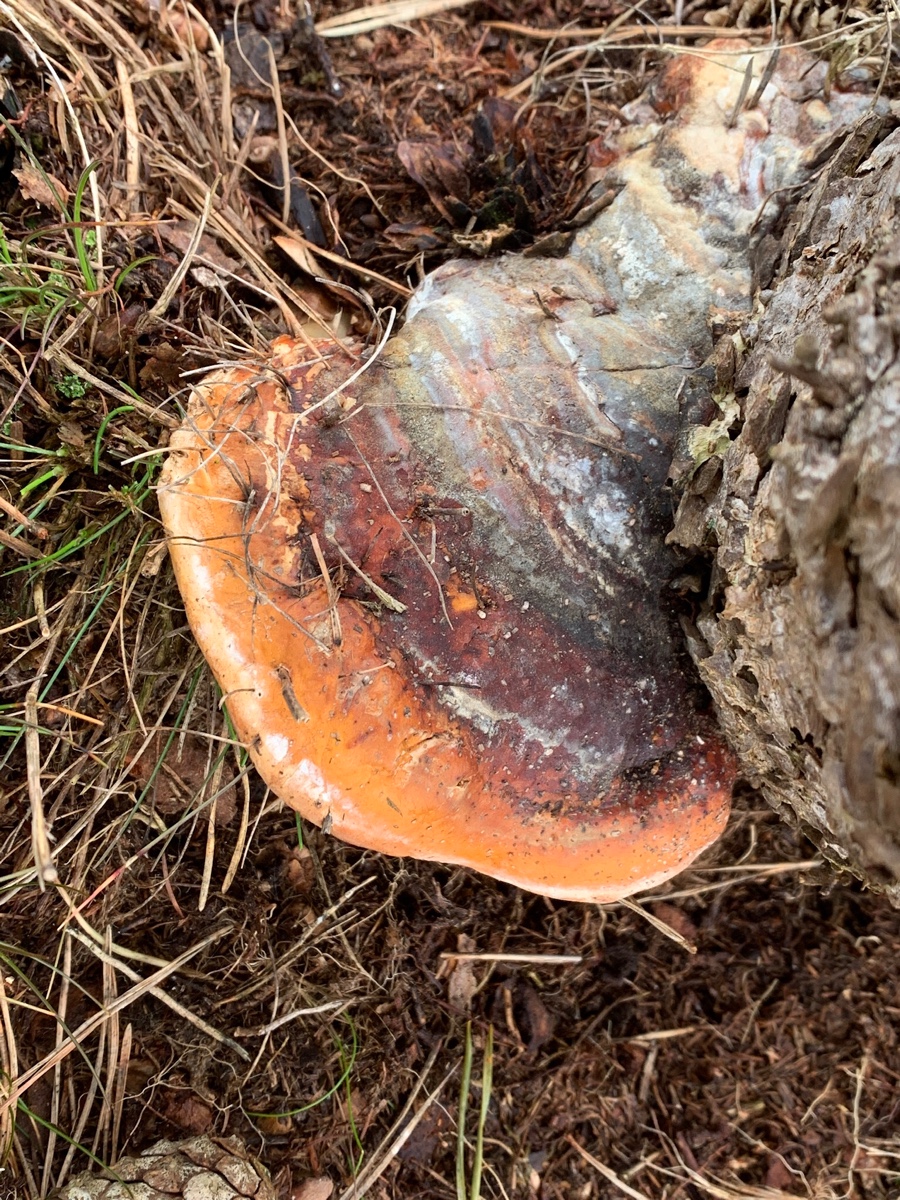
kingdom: Fungi
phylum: Basidiomycota
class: Agaricomycetes
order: Polyporales
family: Fomitopsidaceae
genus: Fomitopsis
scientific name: Fomitopsis pinicola
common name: randbæltet hovporesvamp
